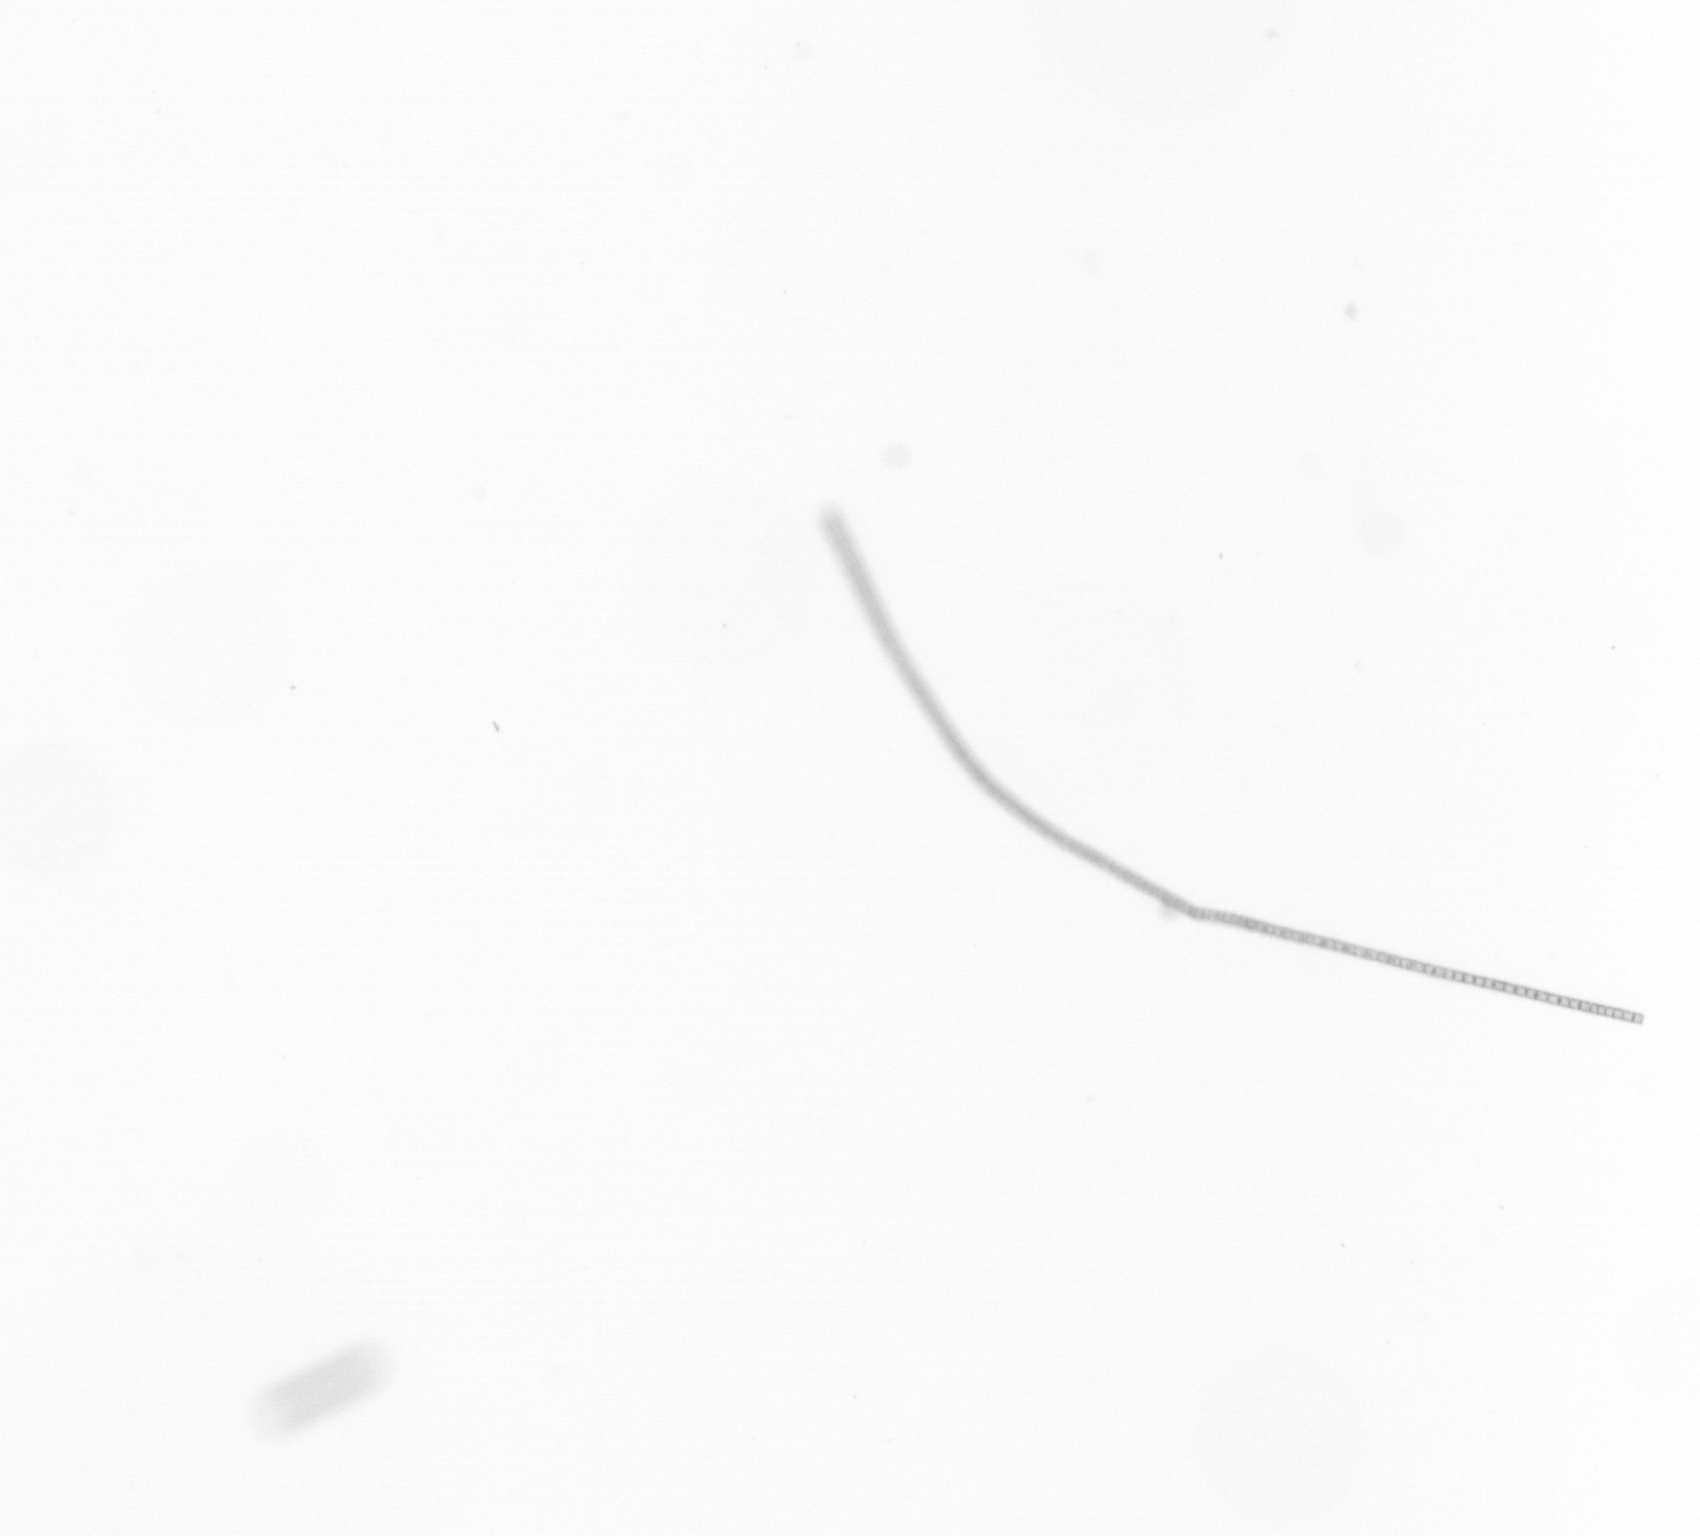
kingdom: Chromista
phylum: Ochrophyta
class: Bacillariophyceae
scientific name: Bacillariophyceae
